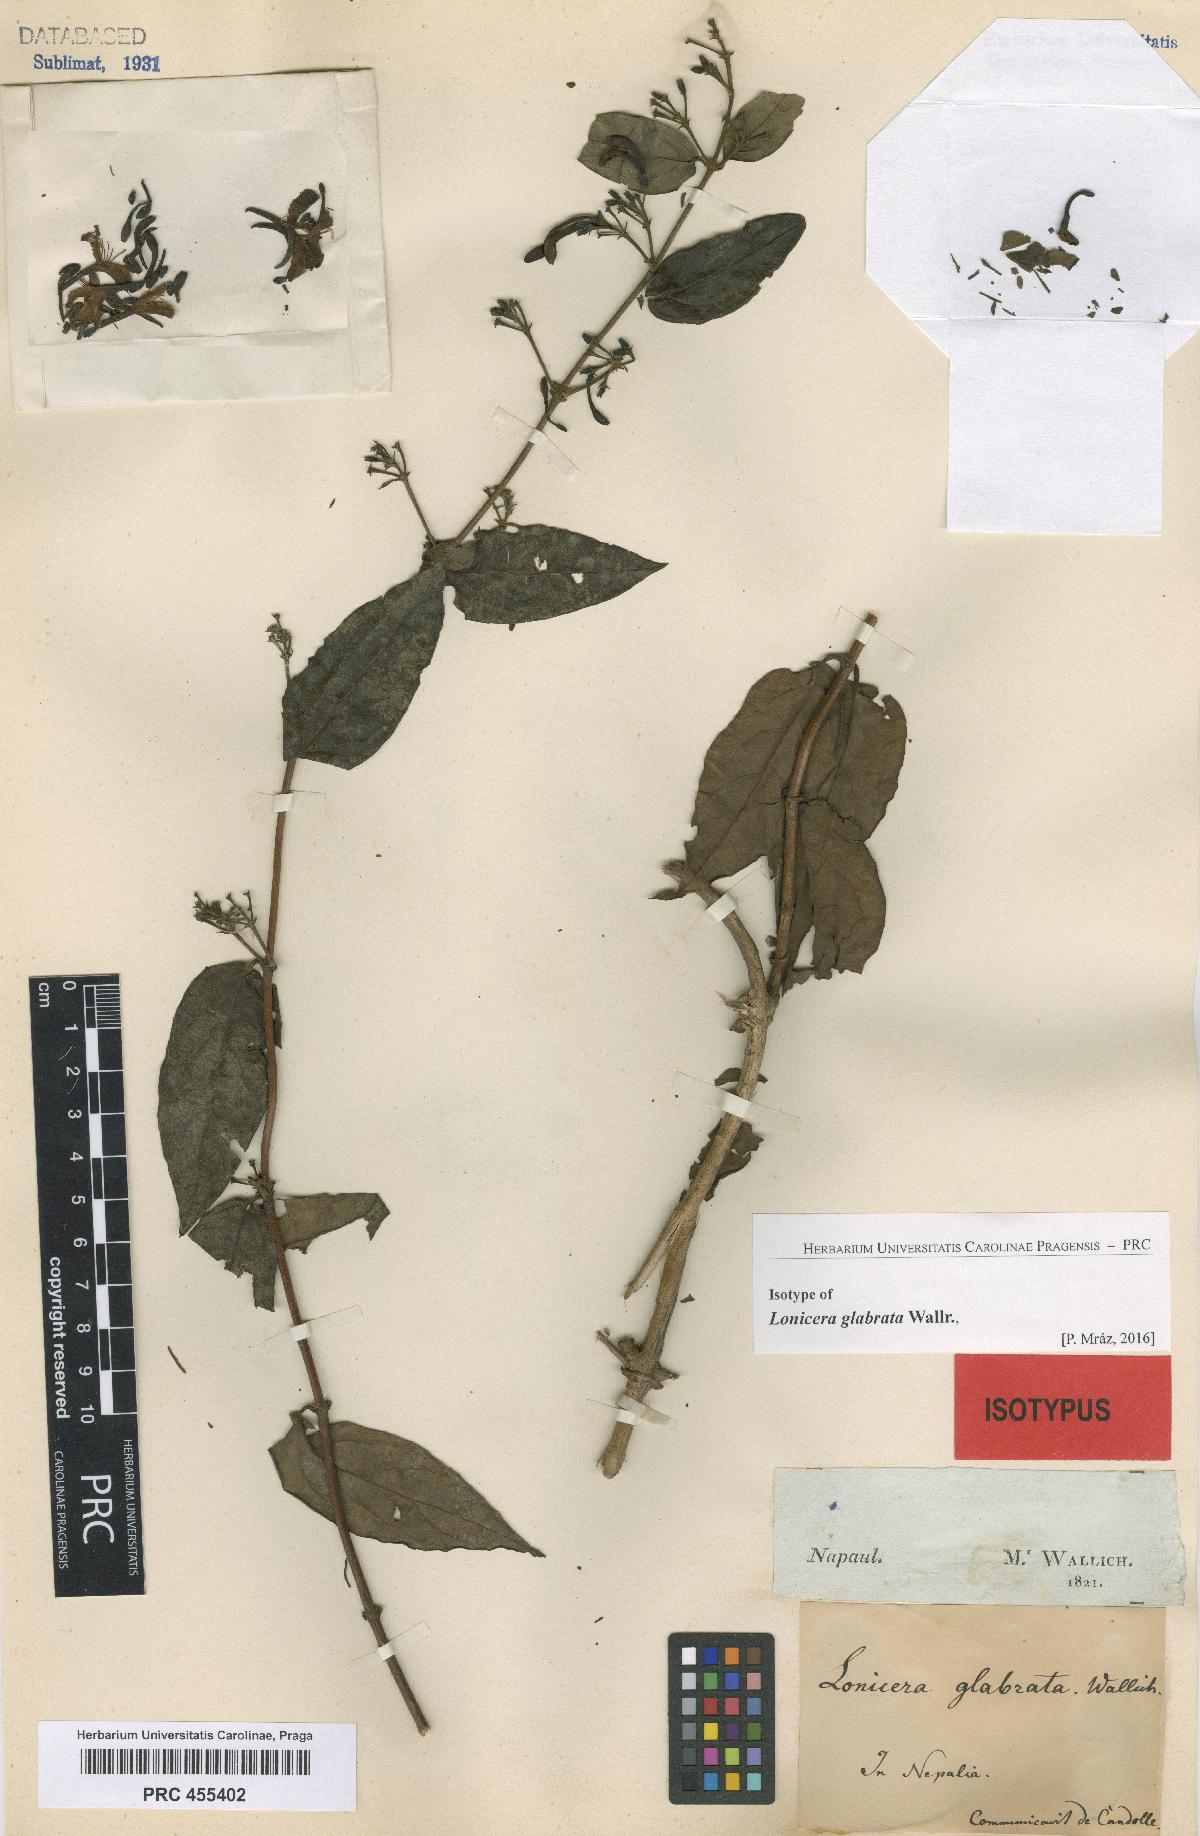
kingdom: Plantae
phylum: Tracheophyta
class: Magnoliopsida
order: Dipsacales
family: Caprifoliaceae
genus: Lonicera
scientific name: Lonicera glabrata
